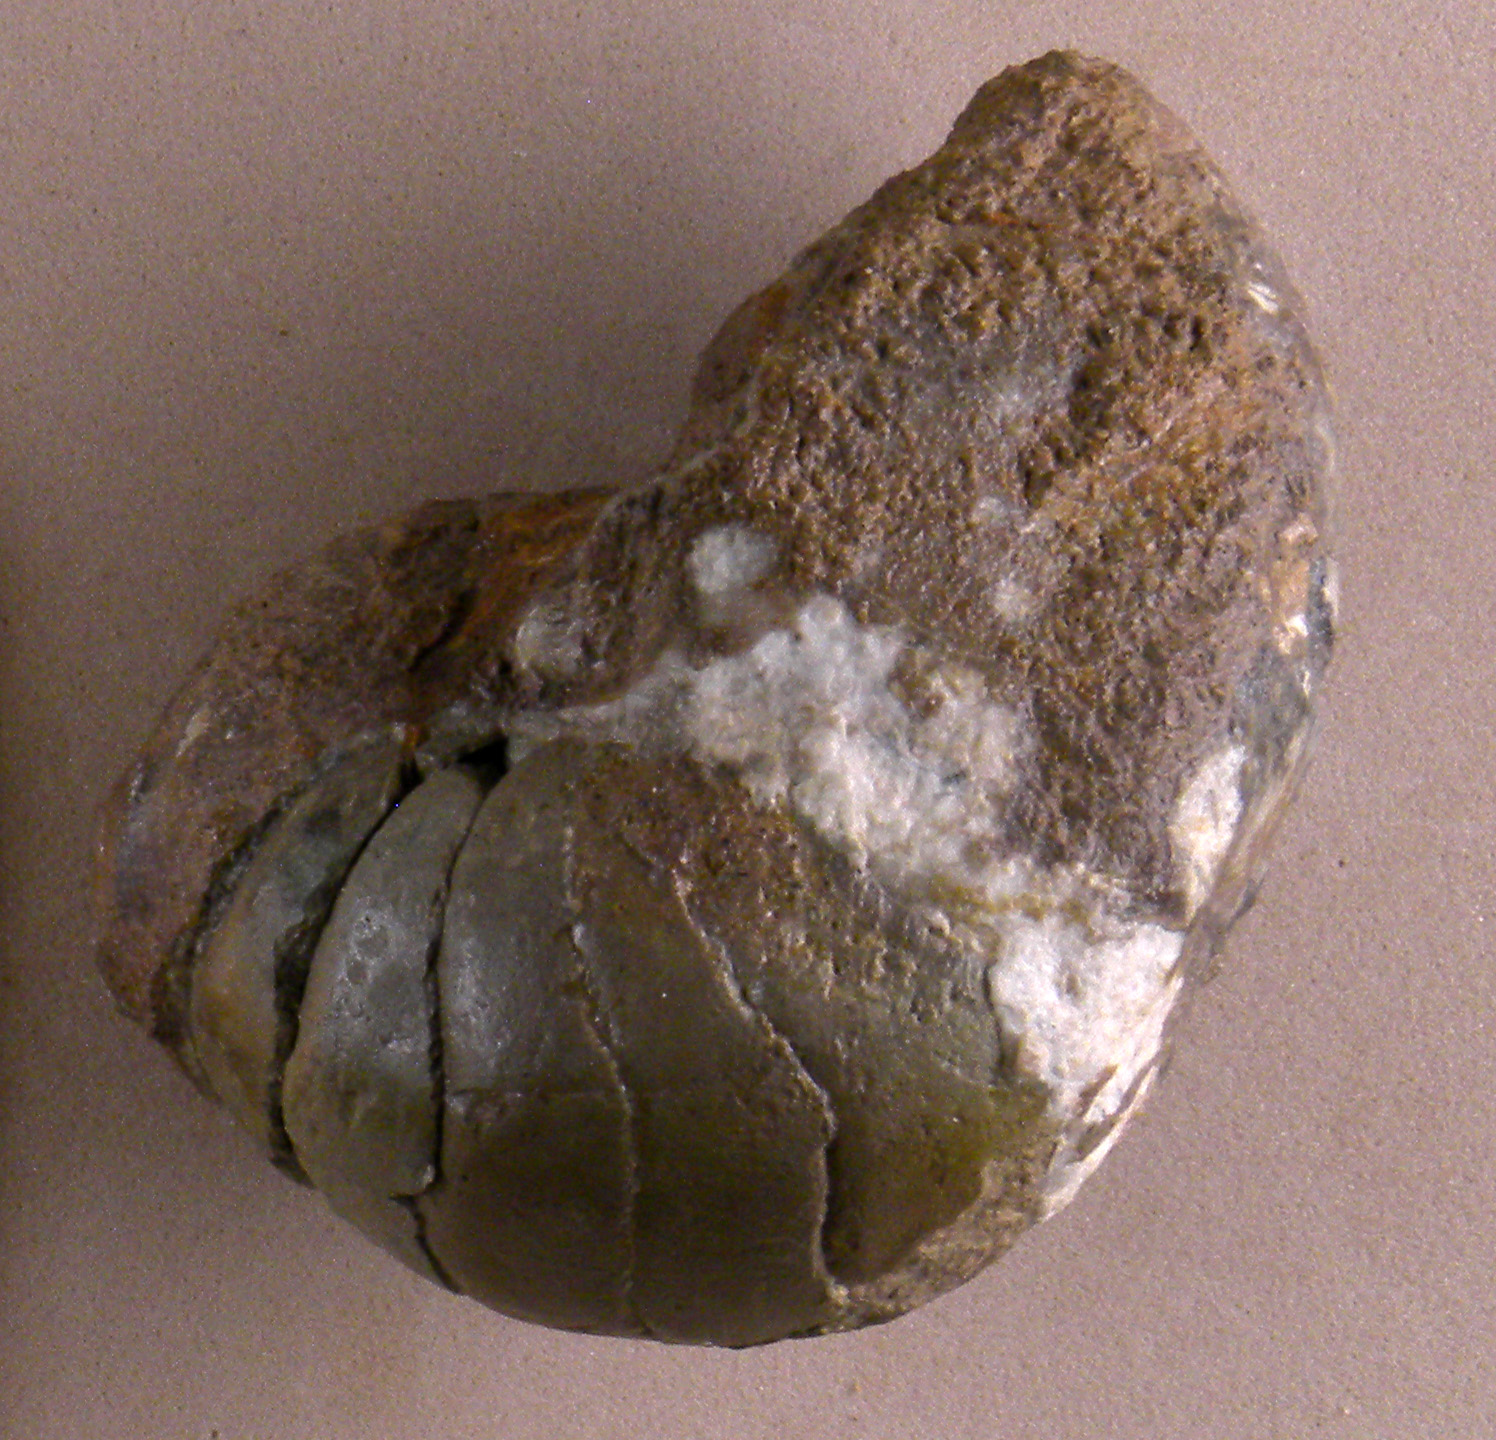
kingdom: Animalia
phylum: Mollusca
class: Cephalopoda
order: Nautilida
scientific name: Nautilida
